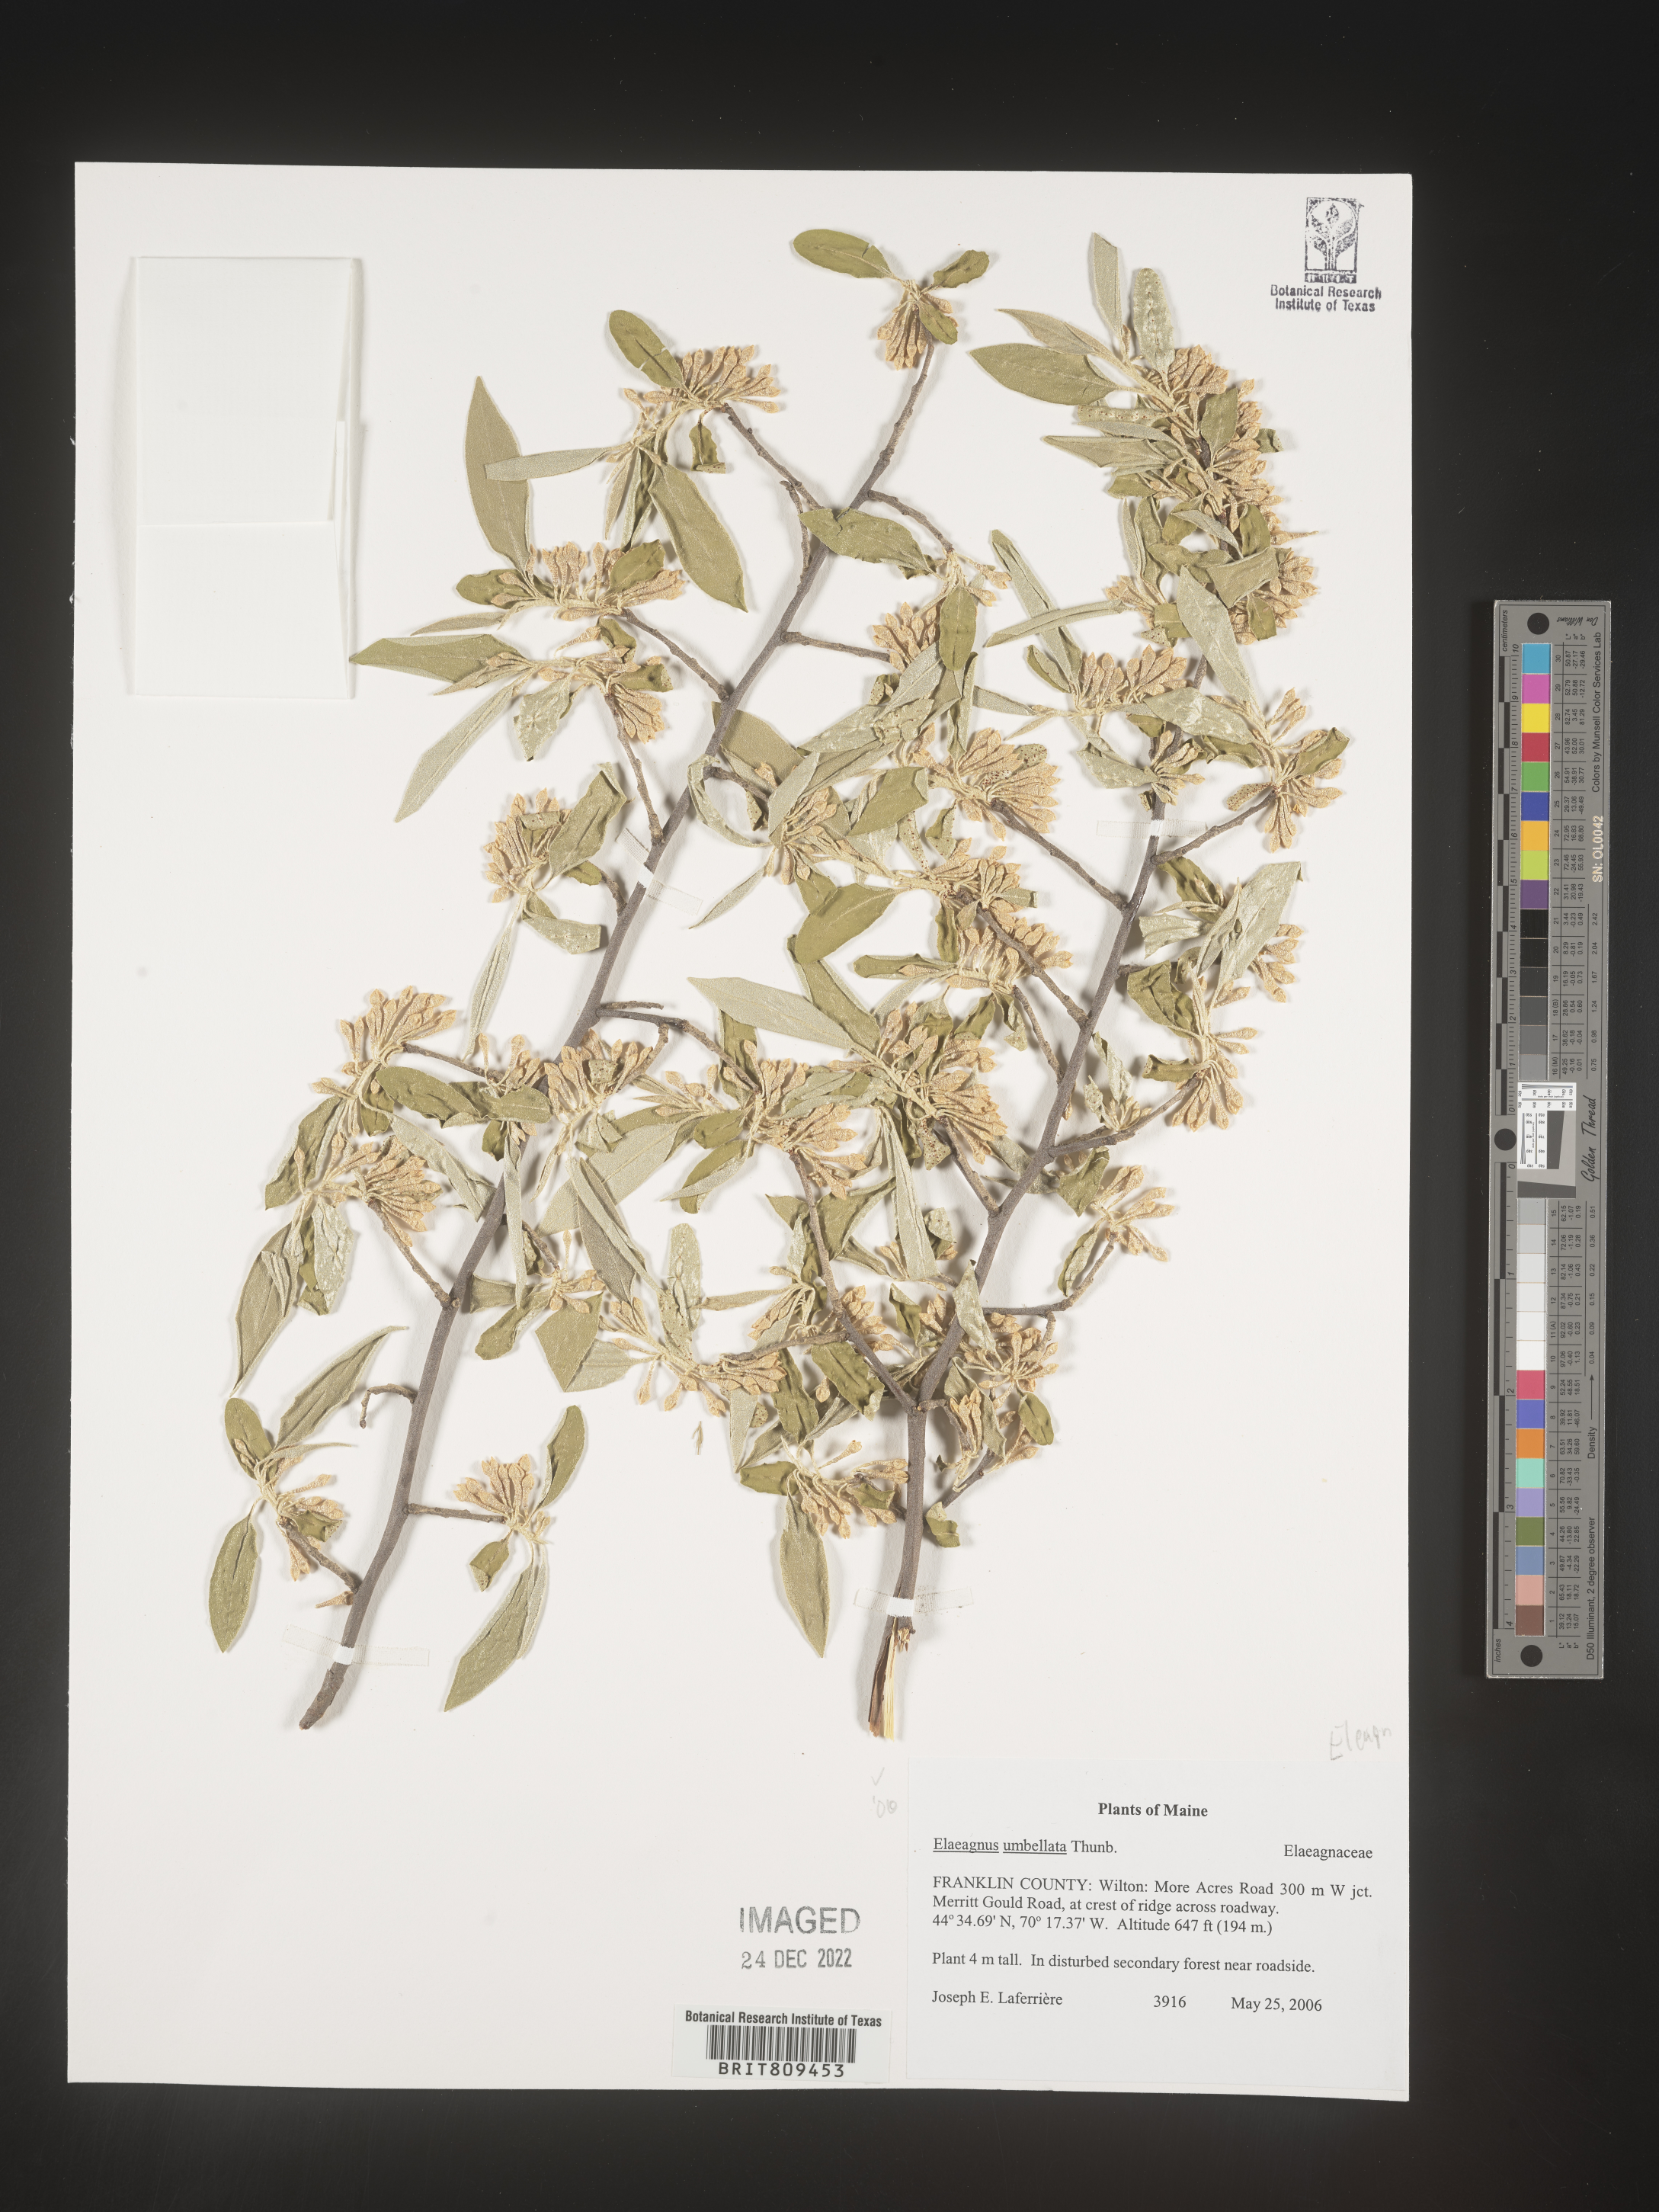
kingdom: Plantae
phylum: Tracheophyta
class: Magnoliopsida
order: Rosales
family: Elaeagnaceae
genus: Elaeagnus
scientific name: Elaeagnus
